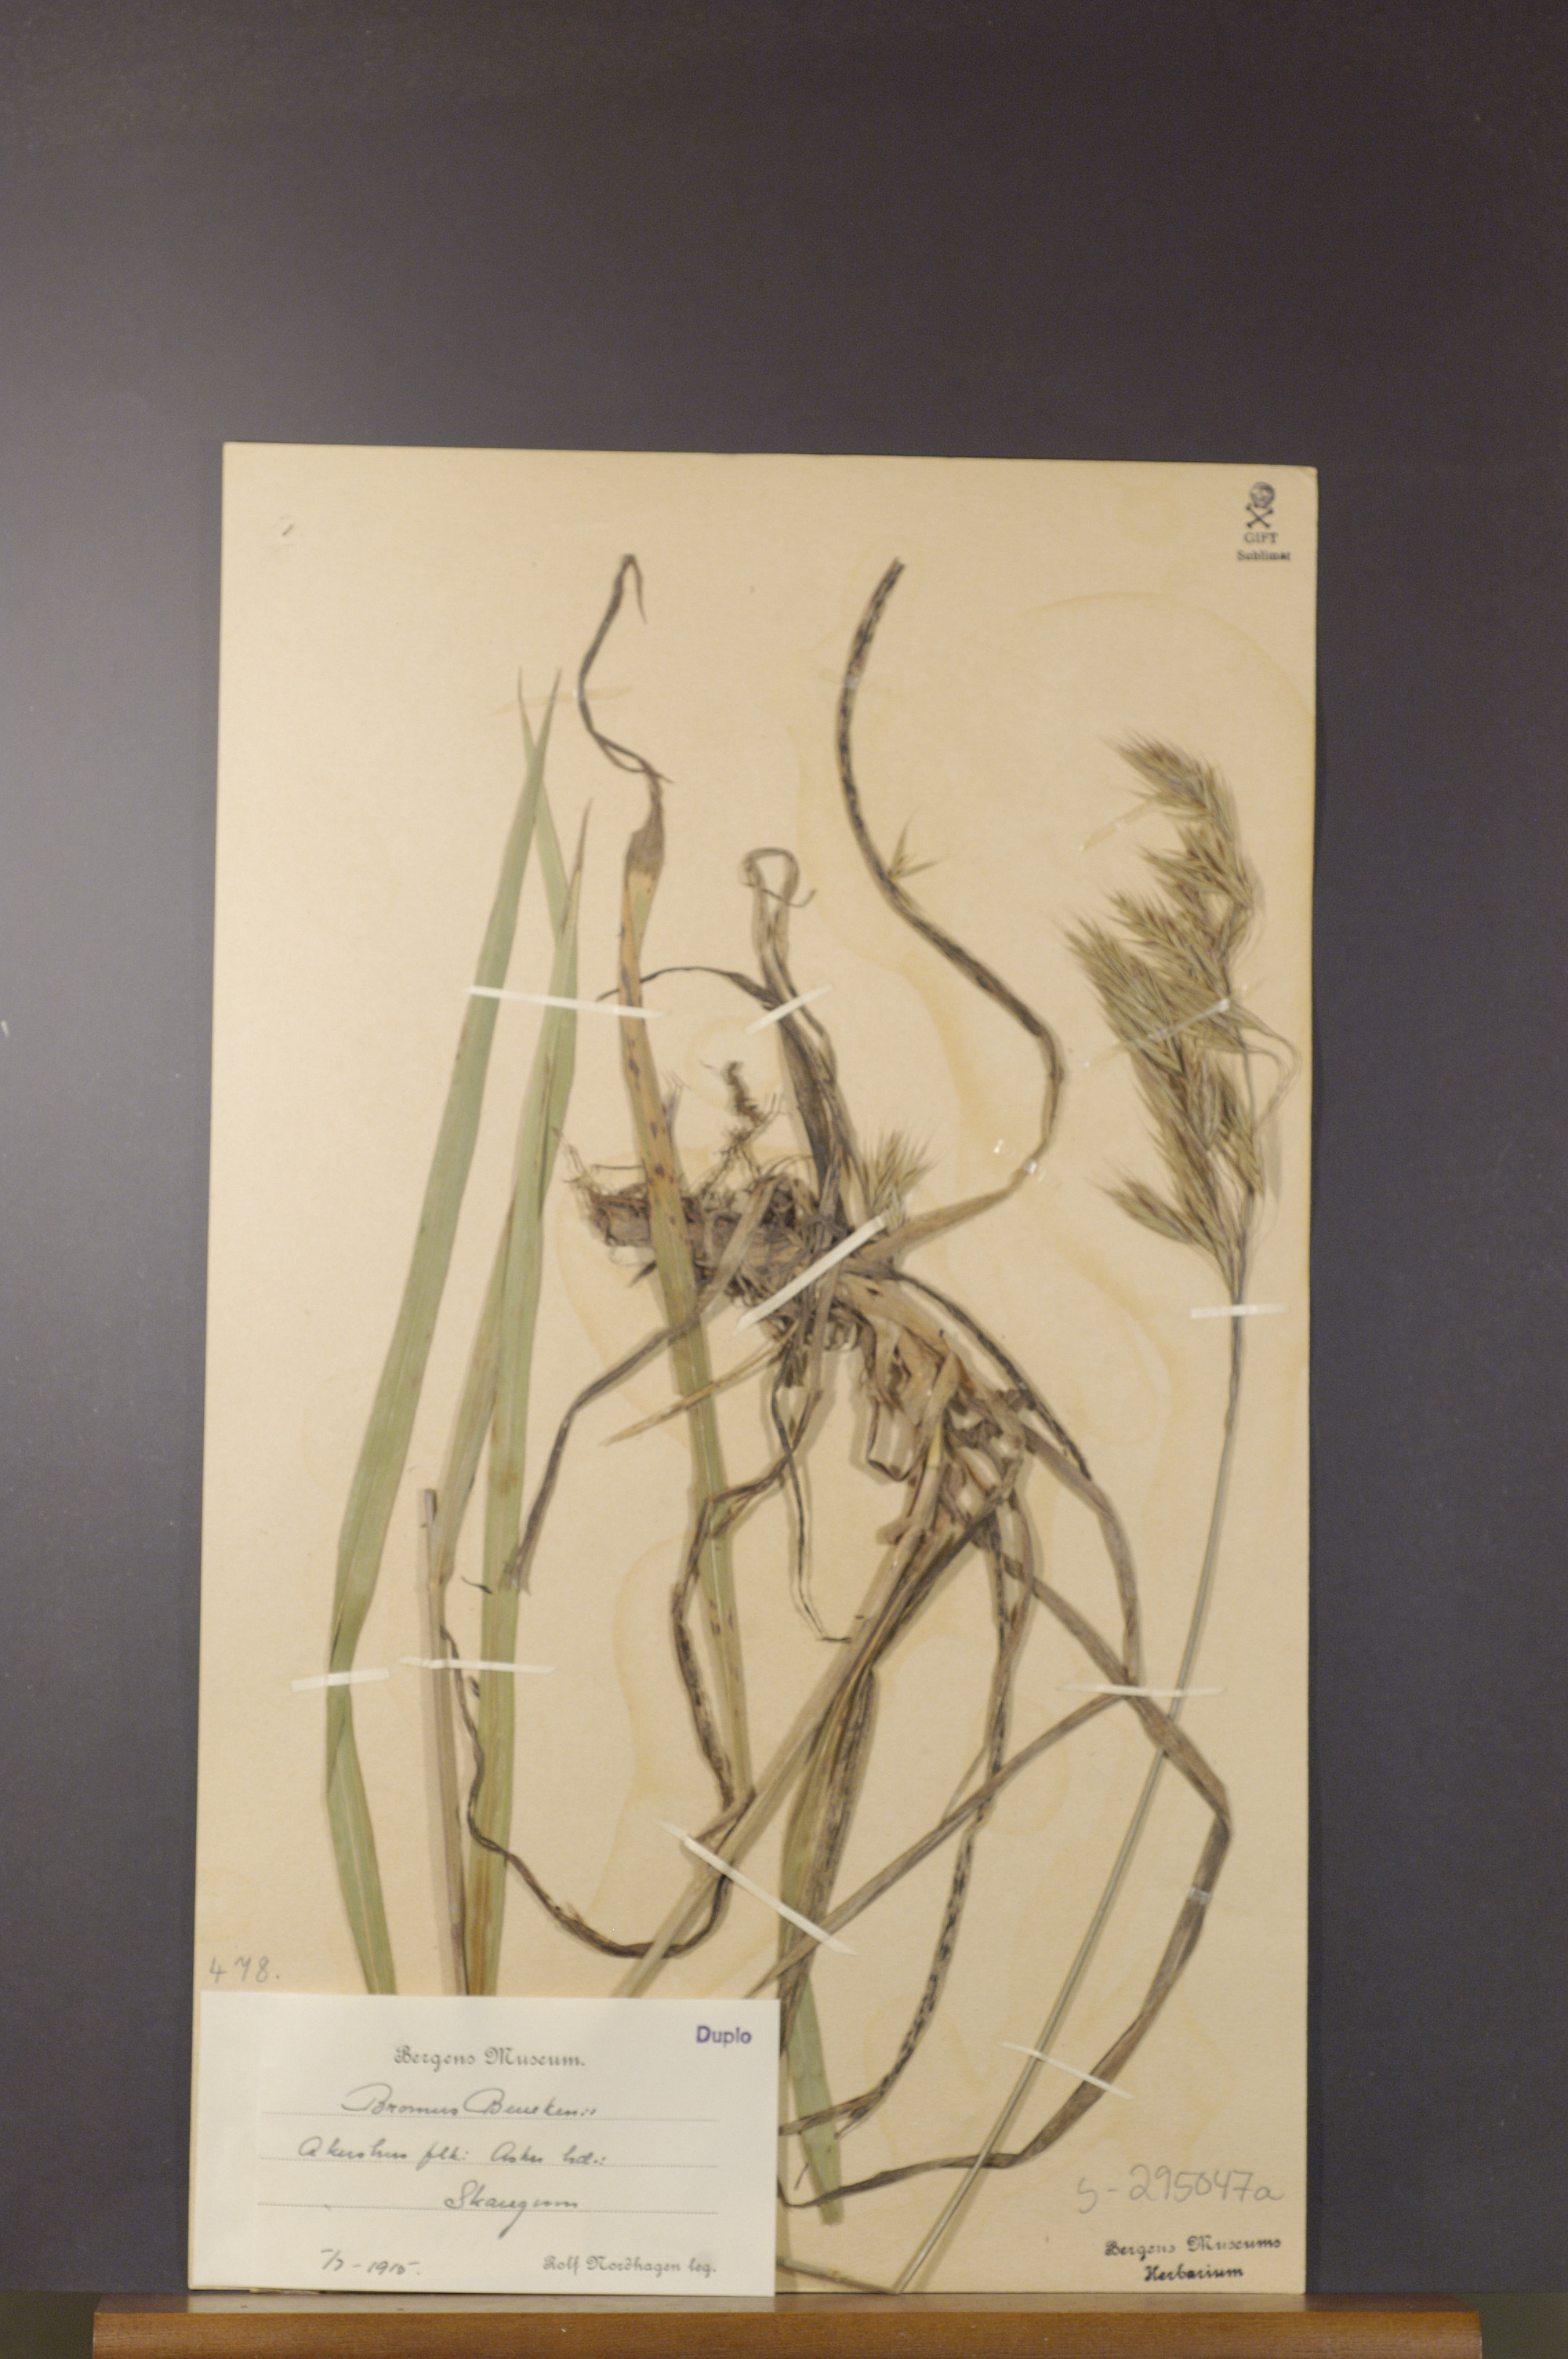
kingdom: Plantae
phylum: Tracheophyta
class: Liliopsida
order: Poales
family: Poaceae
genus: Bromus
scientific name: Bromus benekenii
